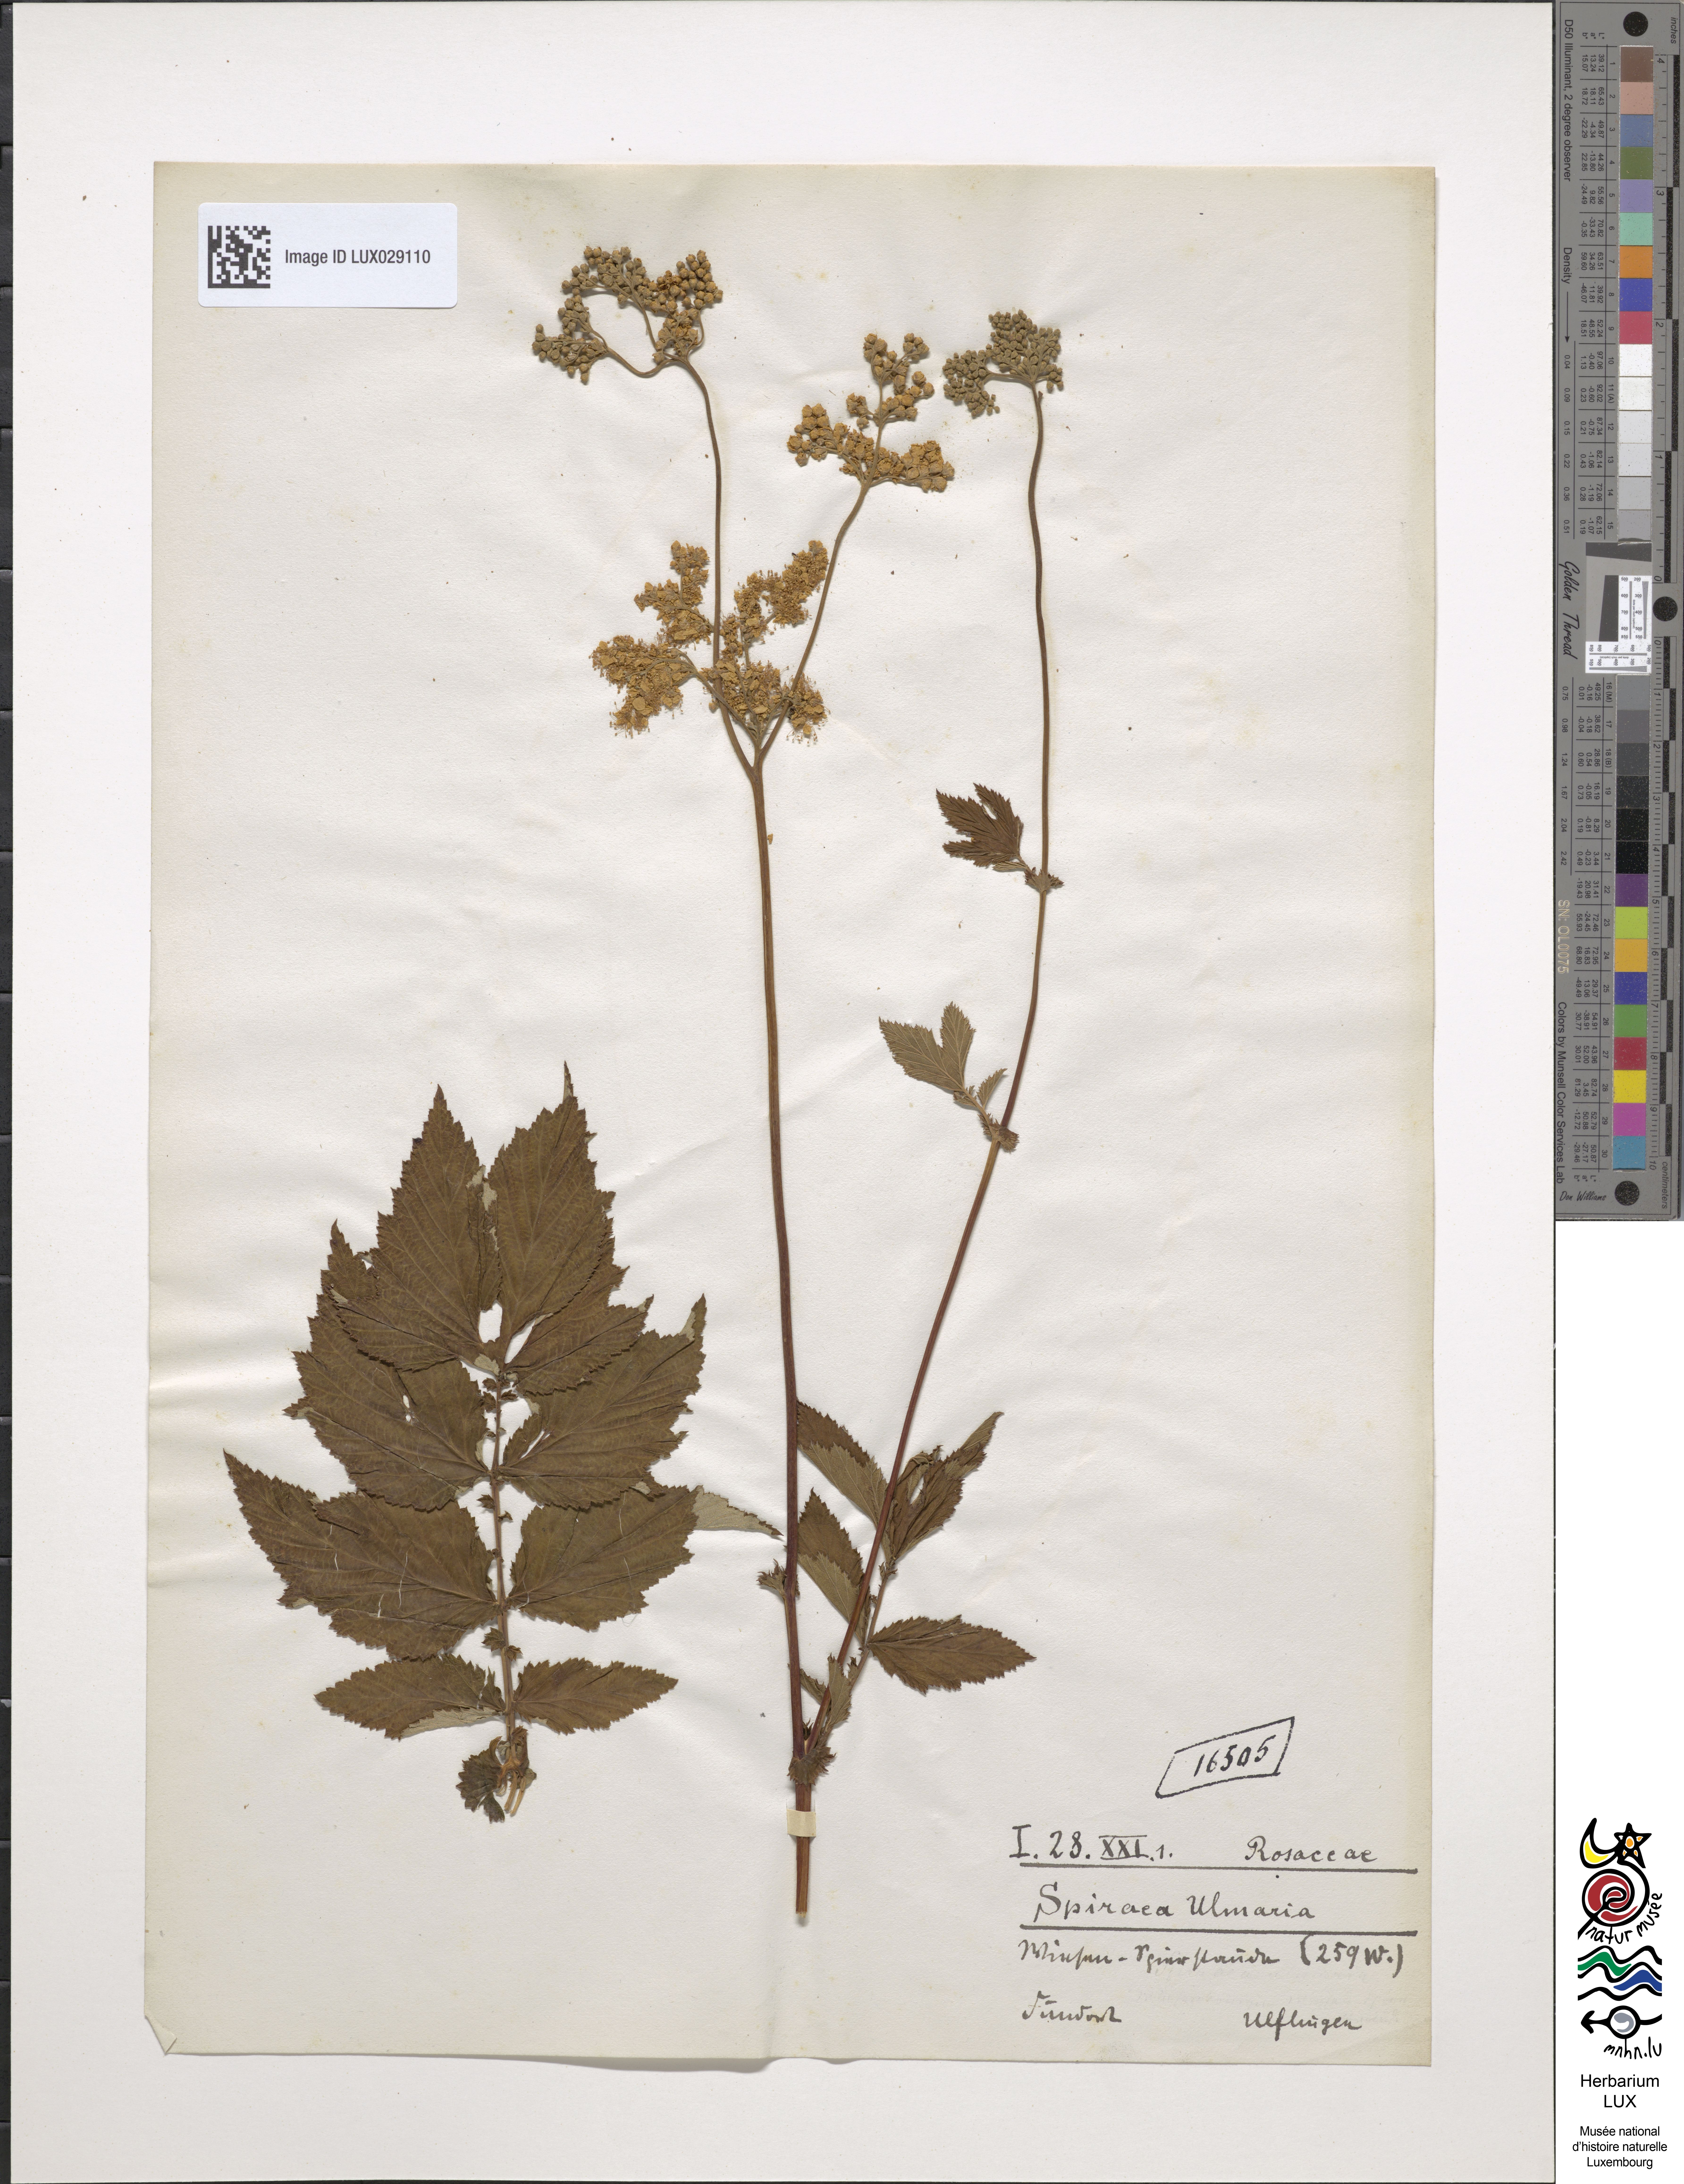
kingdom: Plantae
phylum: Tracheophyta
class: Magnoliopsida
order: Rosales
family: Rosaceae
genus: Filipendula
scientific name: Filipendula ulmaria
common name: Meadowsweet
